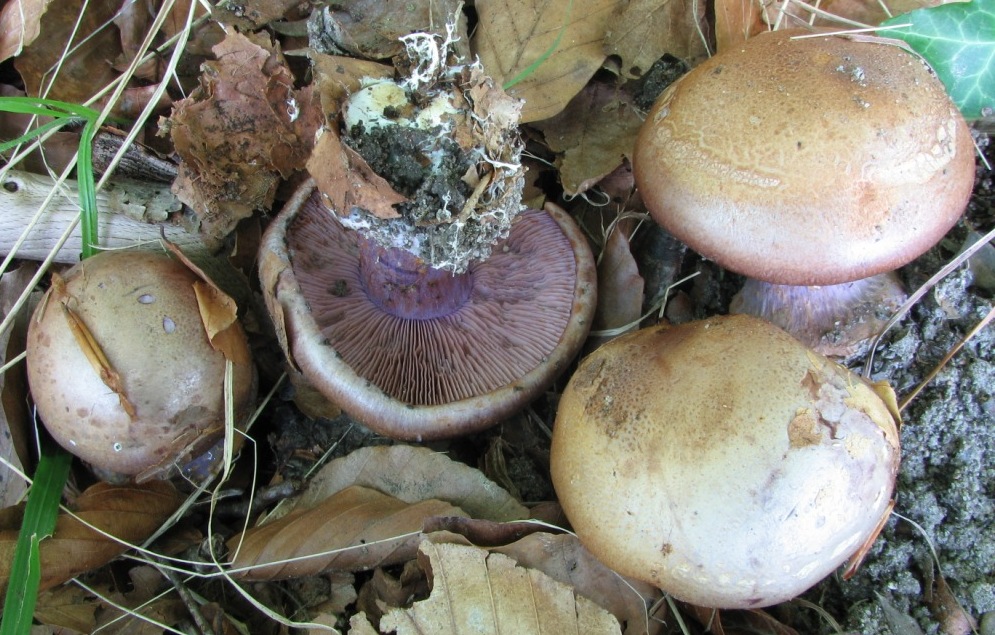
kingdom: Fungi
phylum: Basidiomycota
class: Agaricomycetes
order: Agaricales
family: Cortinariaceae
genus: Calonarius
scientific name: Calonarius violaceipes
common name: stedmoder-slørhat
